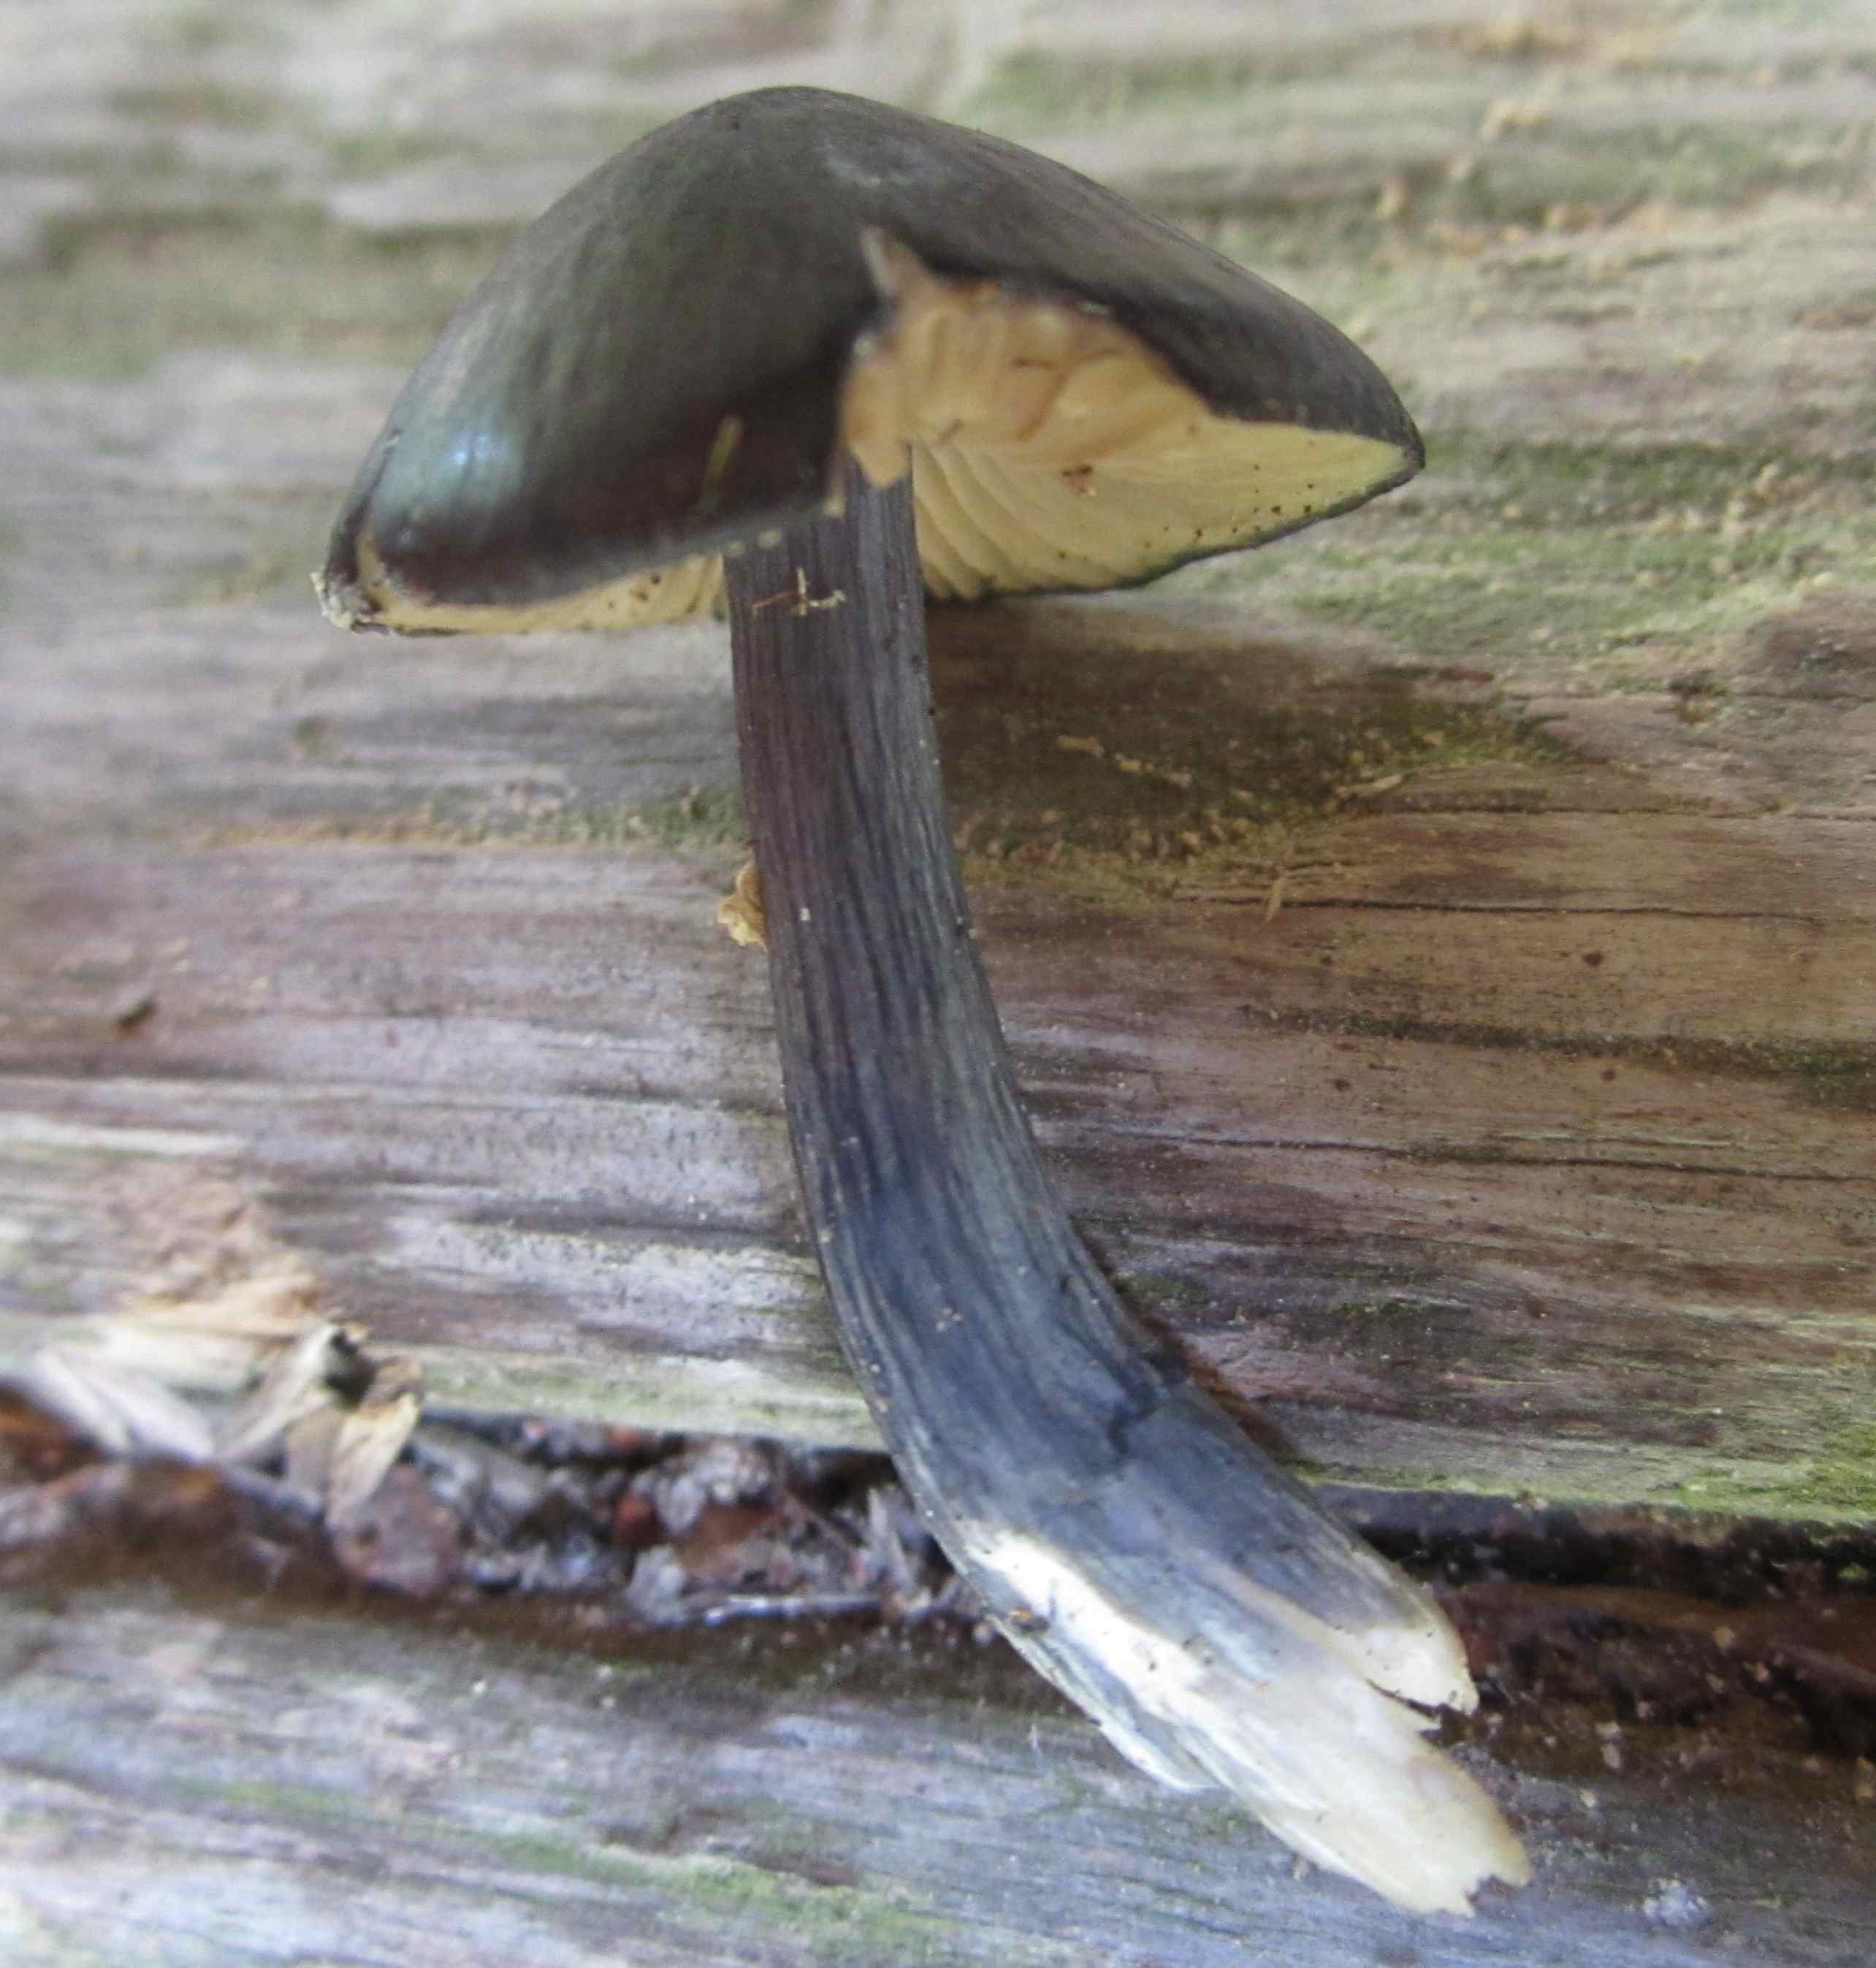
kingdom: Fungi
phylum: Basidiomycota
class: Agaricomycetes
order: Agaricales
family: Entolomataceae
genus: Entocybe
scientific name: Entocybe nitida
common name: stålblå rødblad
